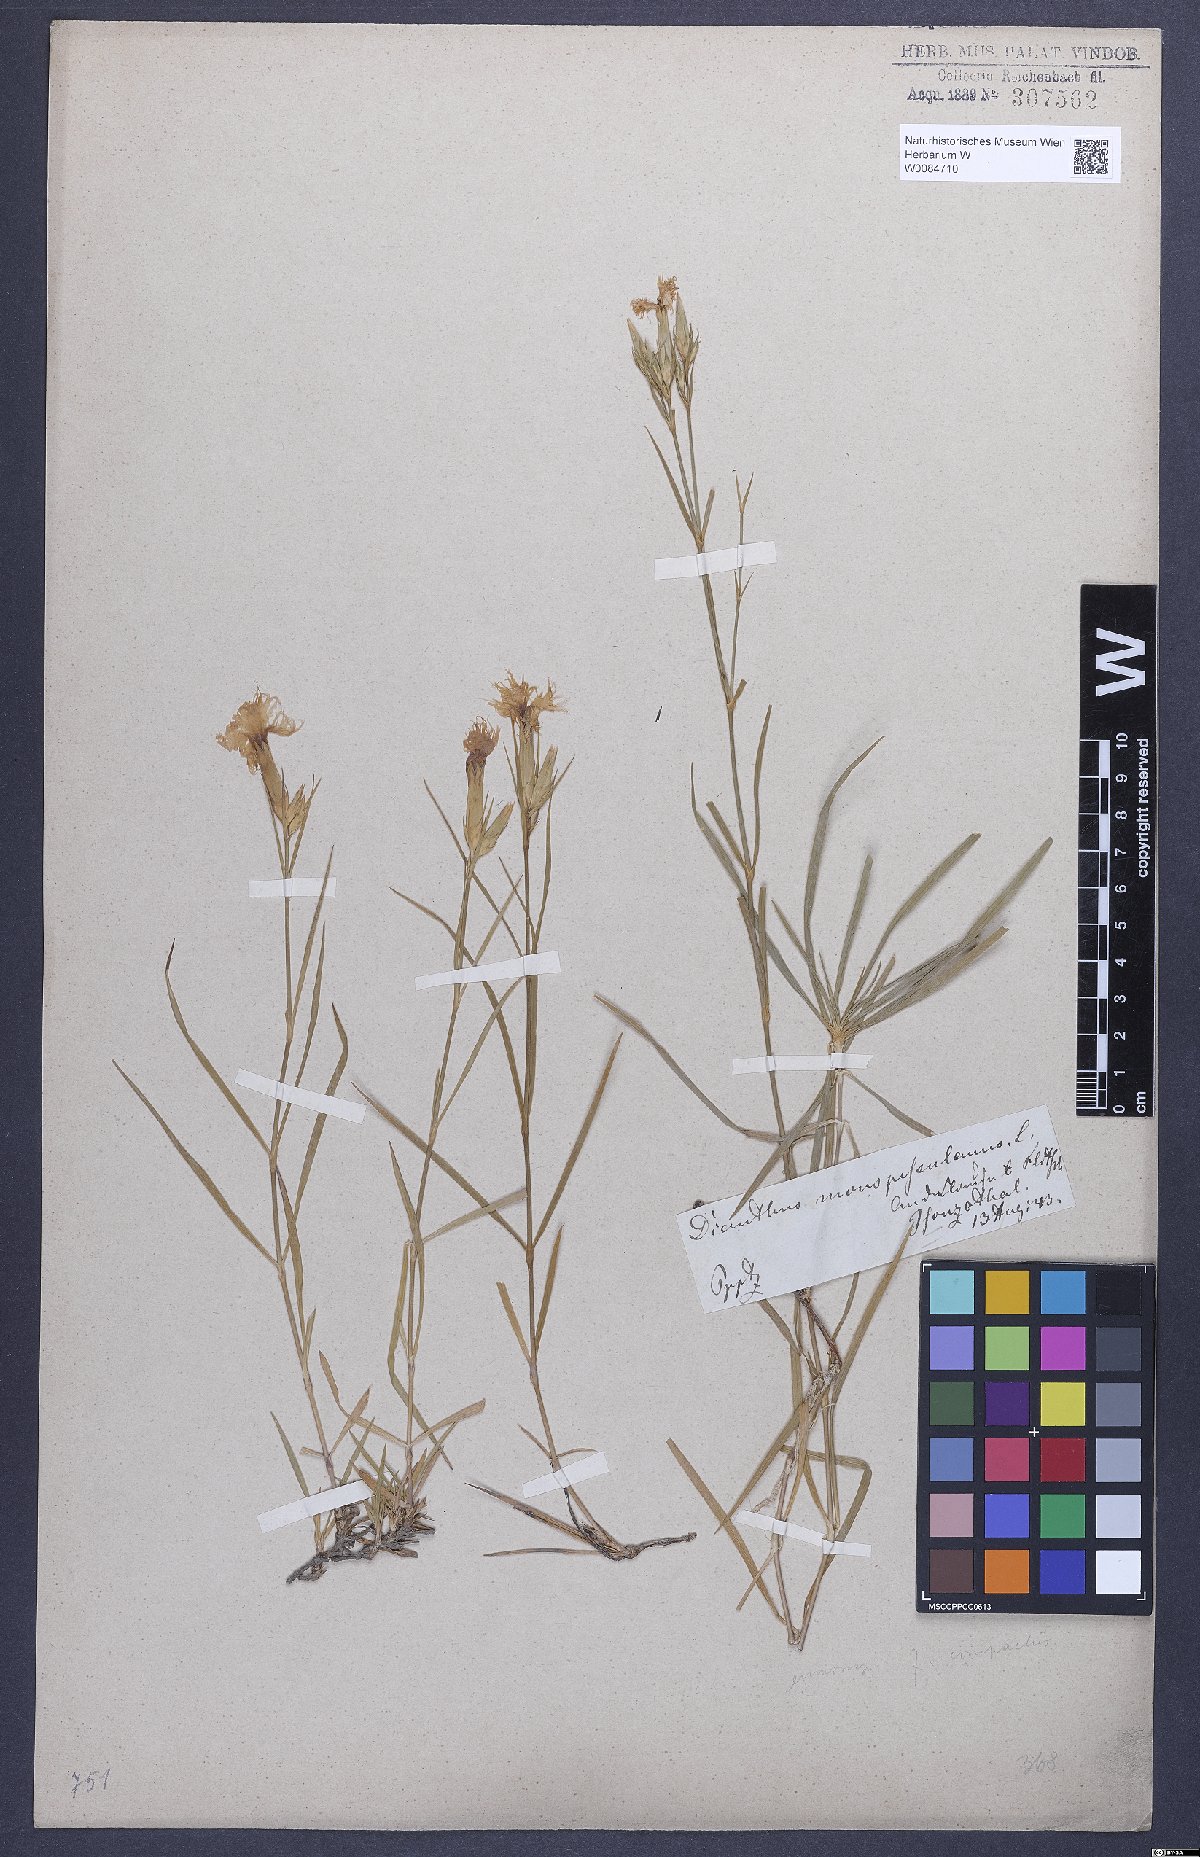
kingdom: Plantae
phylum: Tracheophyta
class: Magnoliopsida
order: Caryophyllales
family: Caryophyllaceae
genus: Dianthus
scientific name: Dianthus hyssopifolius
